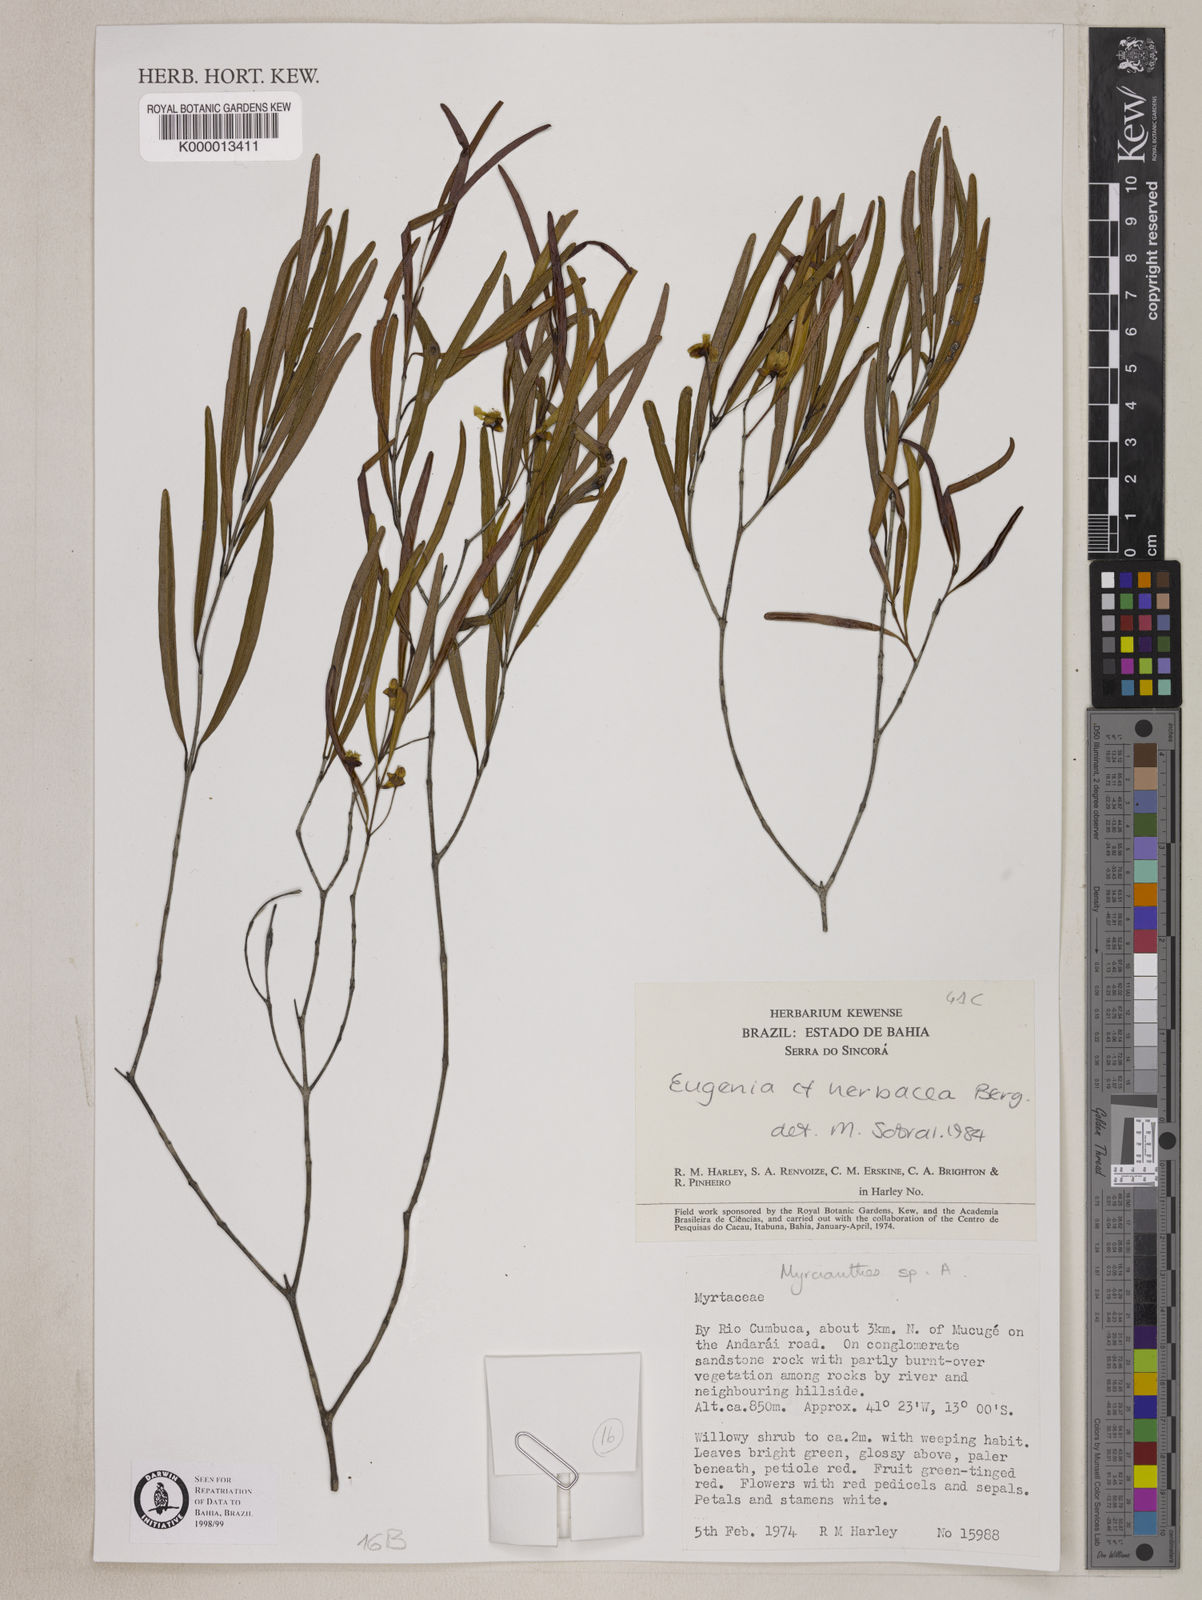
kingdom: Plantae
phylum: Tracheophyta
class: Magnoliopsida
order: Myrtales
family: Myrtaceae
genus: Myrcianthes
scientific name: Myrcianthes
